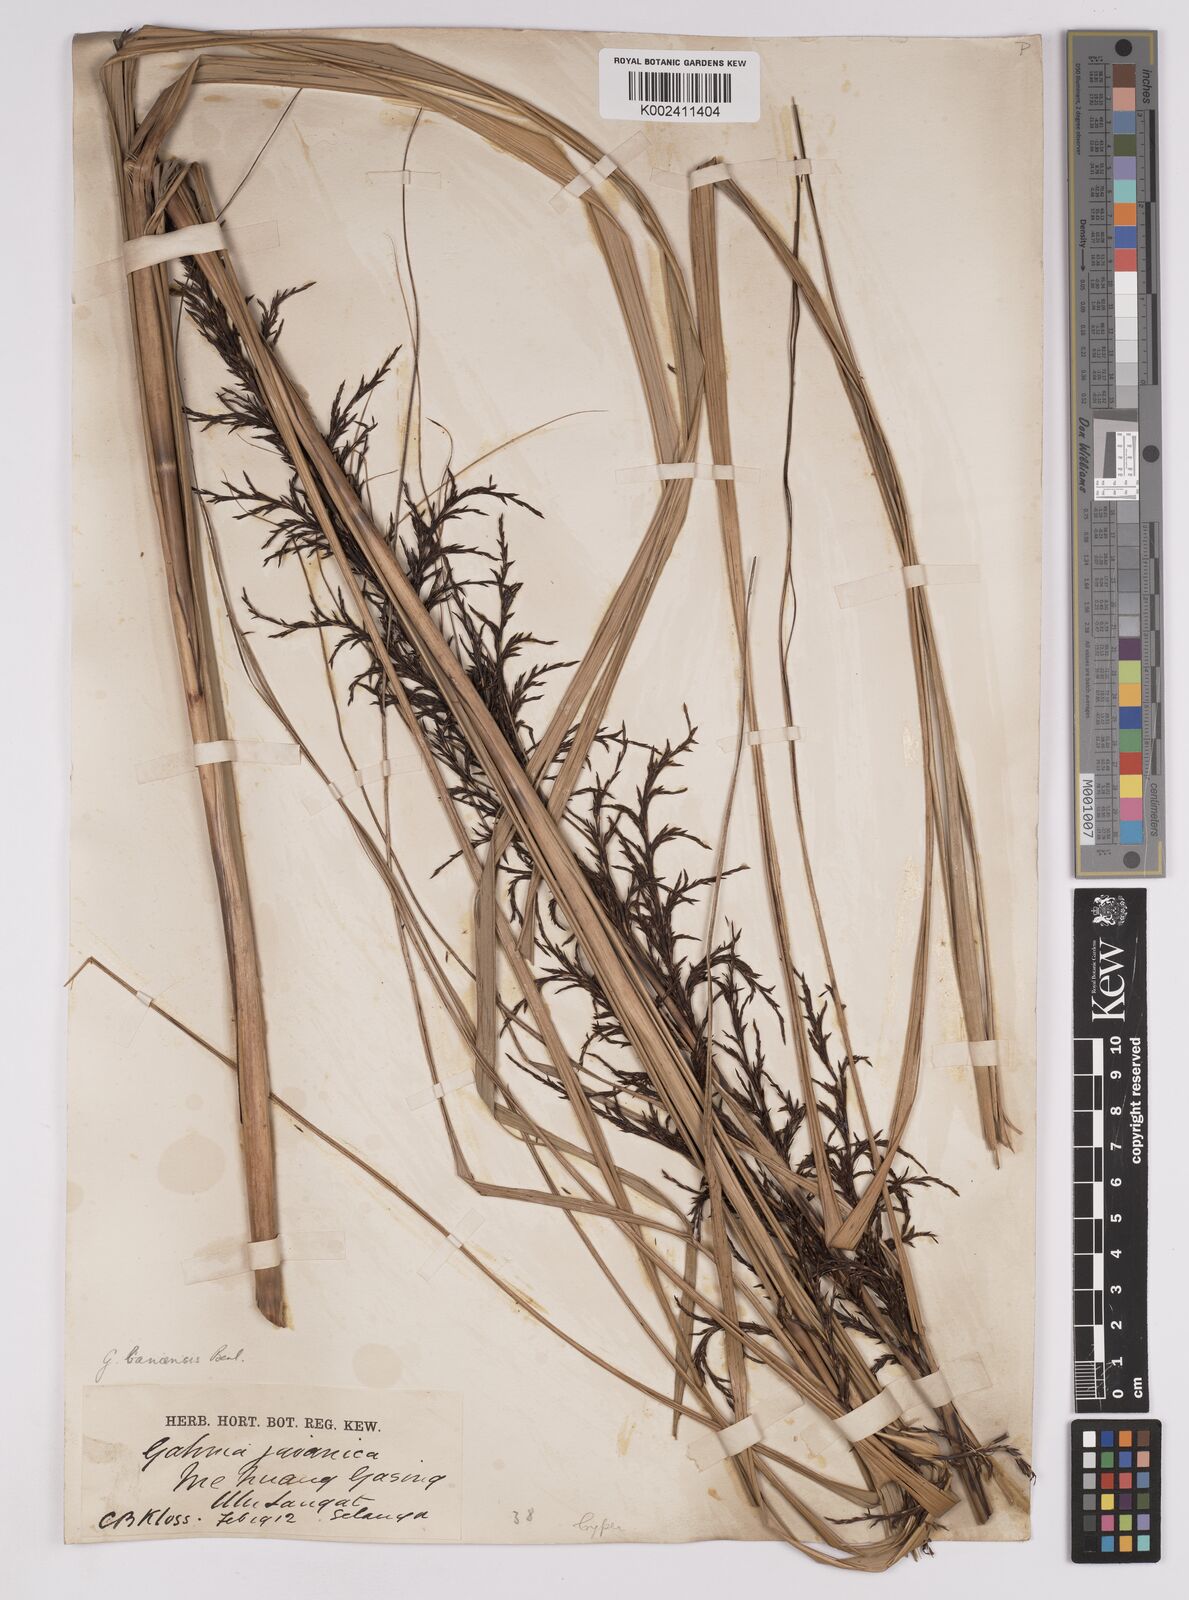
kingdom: Plantae
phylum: Tracheophyta
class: Liliopsida
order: Poales
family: Cyperaceae
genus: Gahnia
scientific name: Gahnia baniensis
